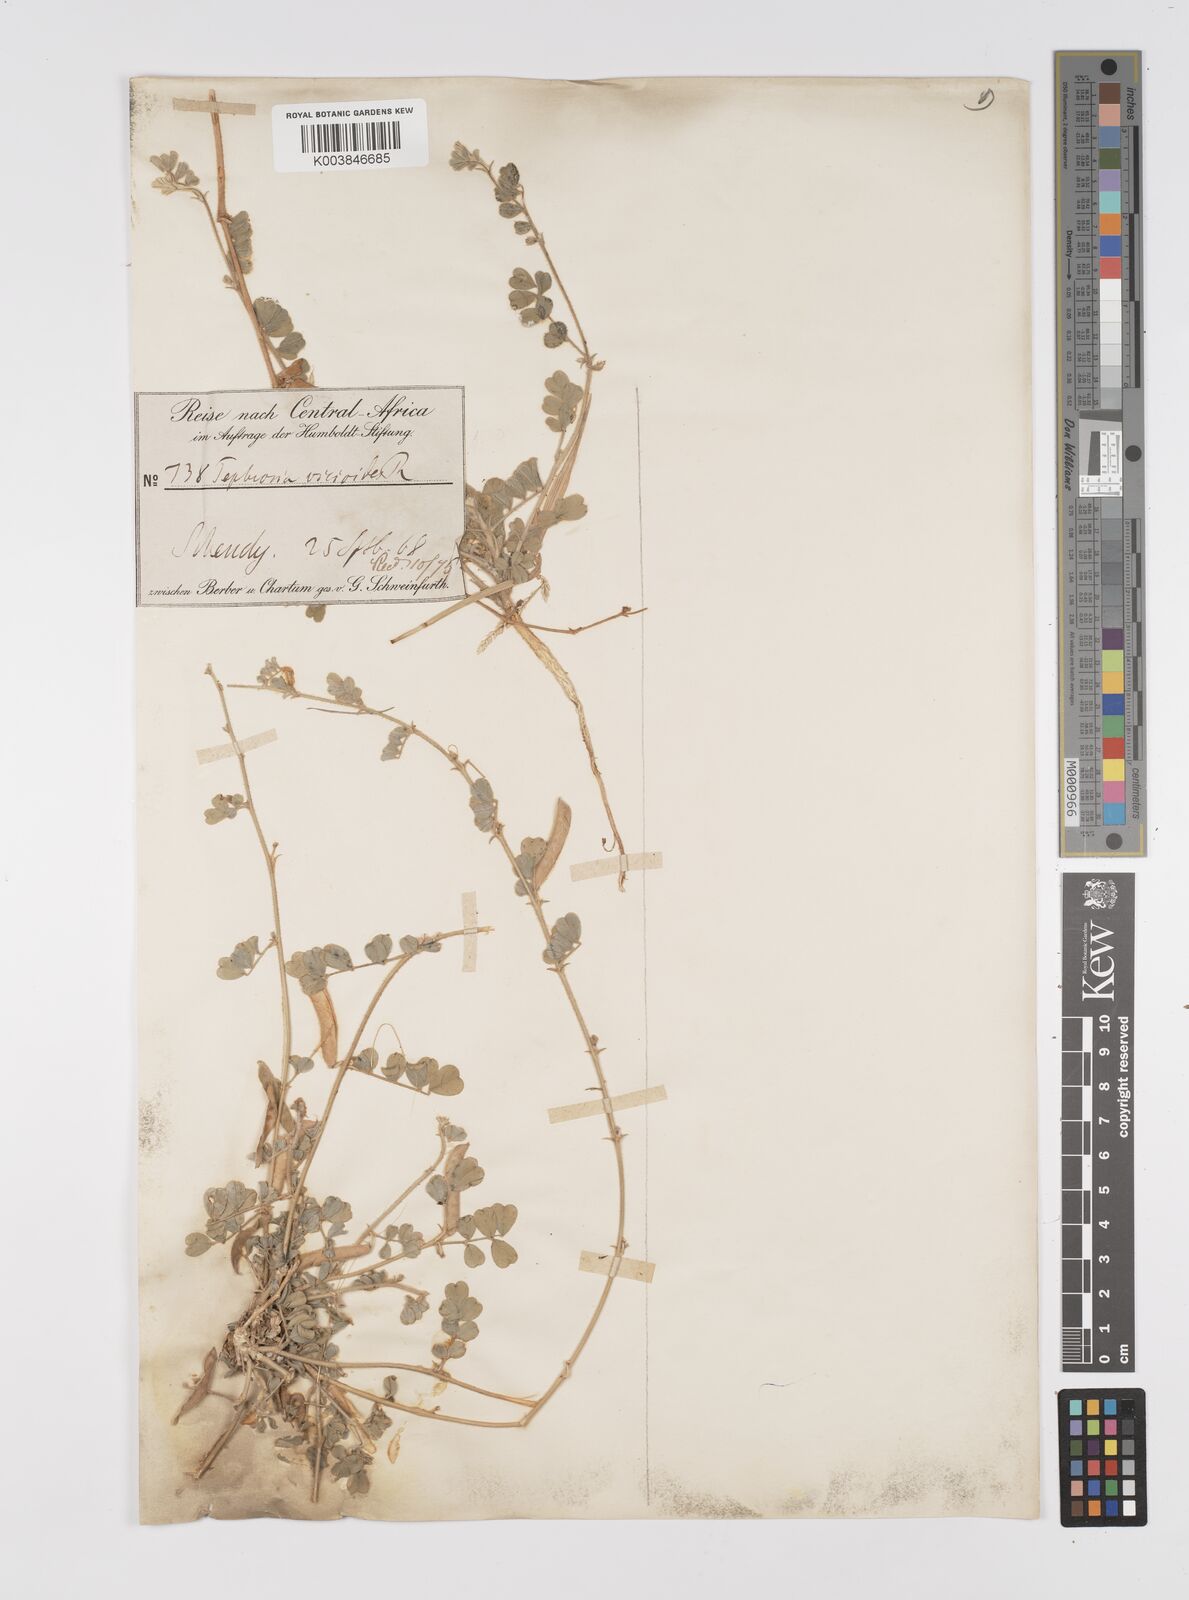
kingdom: Plantae
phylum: Tracheophyta
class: Magnoliopsida
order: Fabales
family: Fabaceae
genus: Tephrosia
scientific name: Tephrosia uniflora
